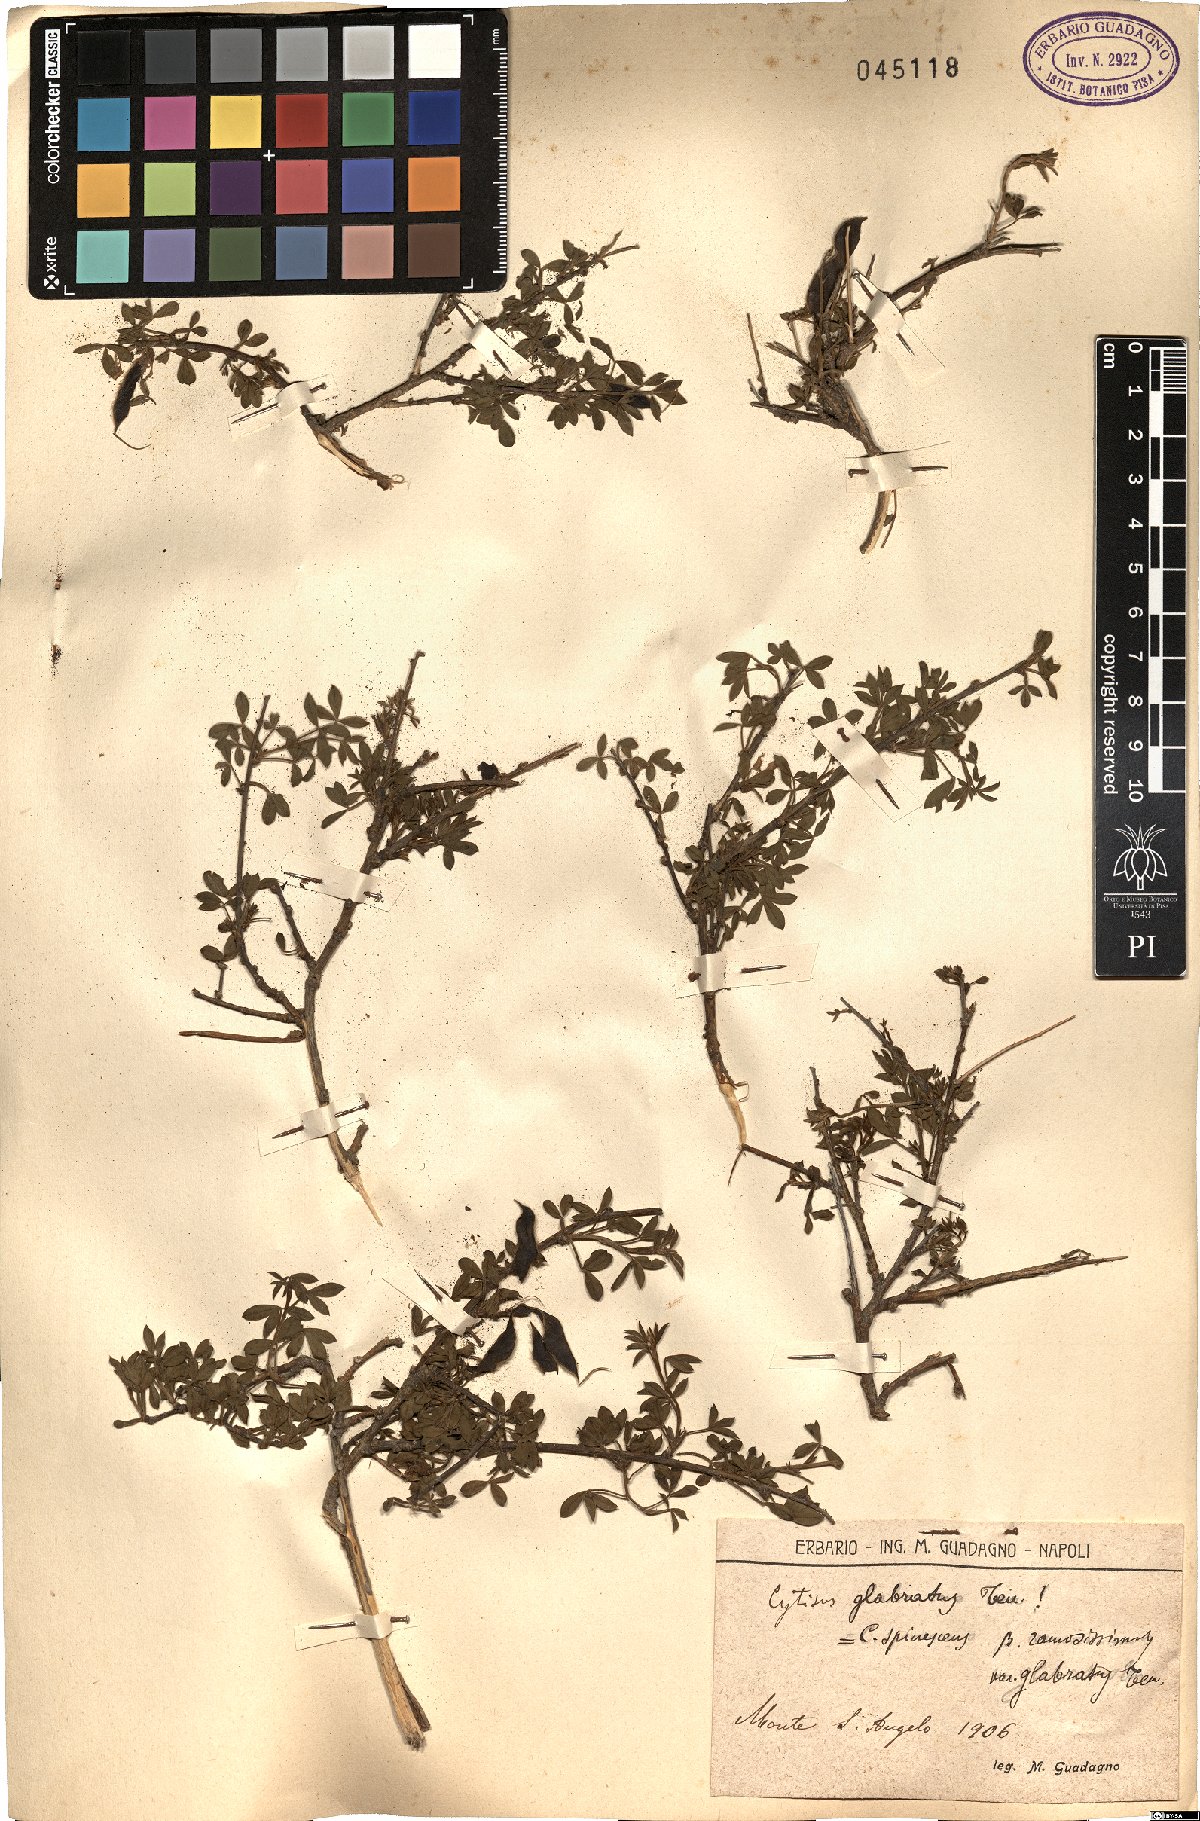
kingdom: Plantae
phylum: Tracheophyta
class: Magnoliopsida
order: Fabales
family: Fabaceae
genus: Cytisus
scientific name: Cytisus scoparius
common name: Scotch broom
